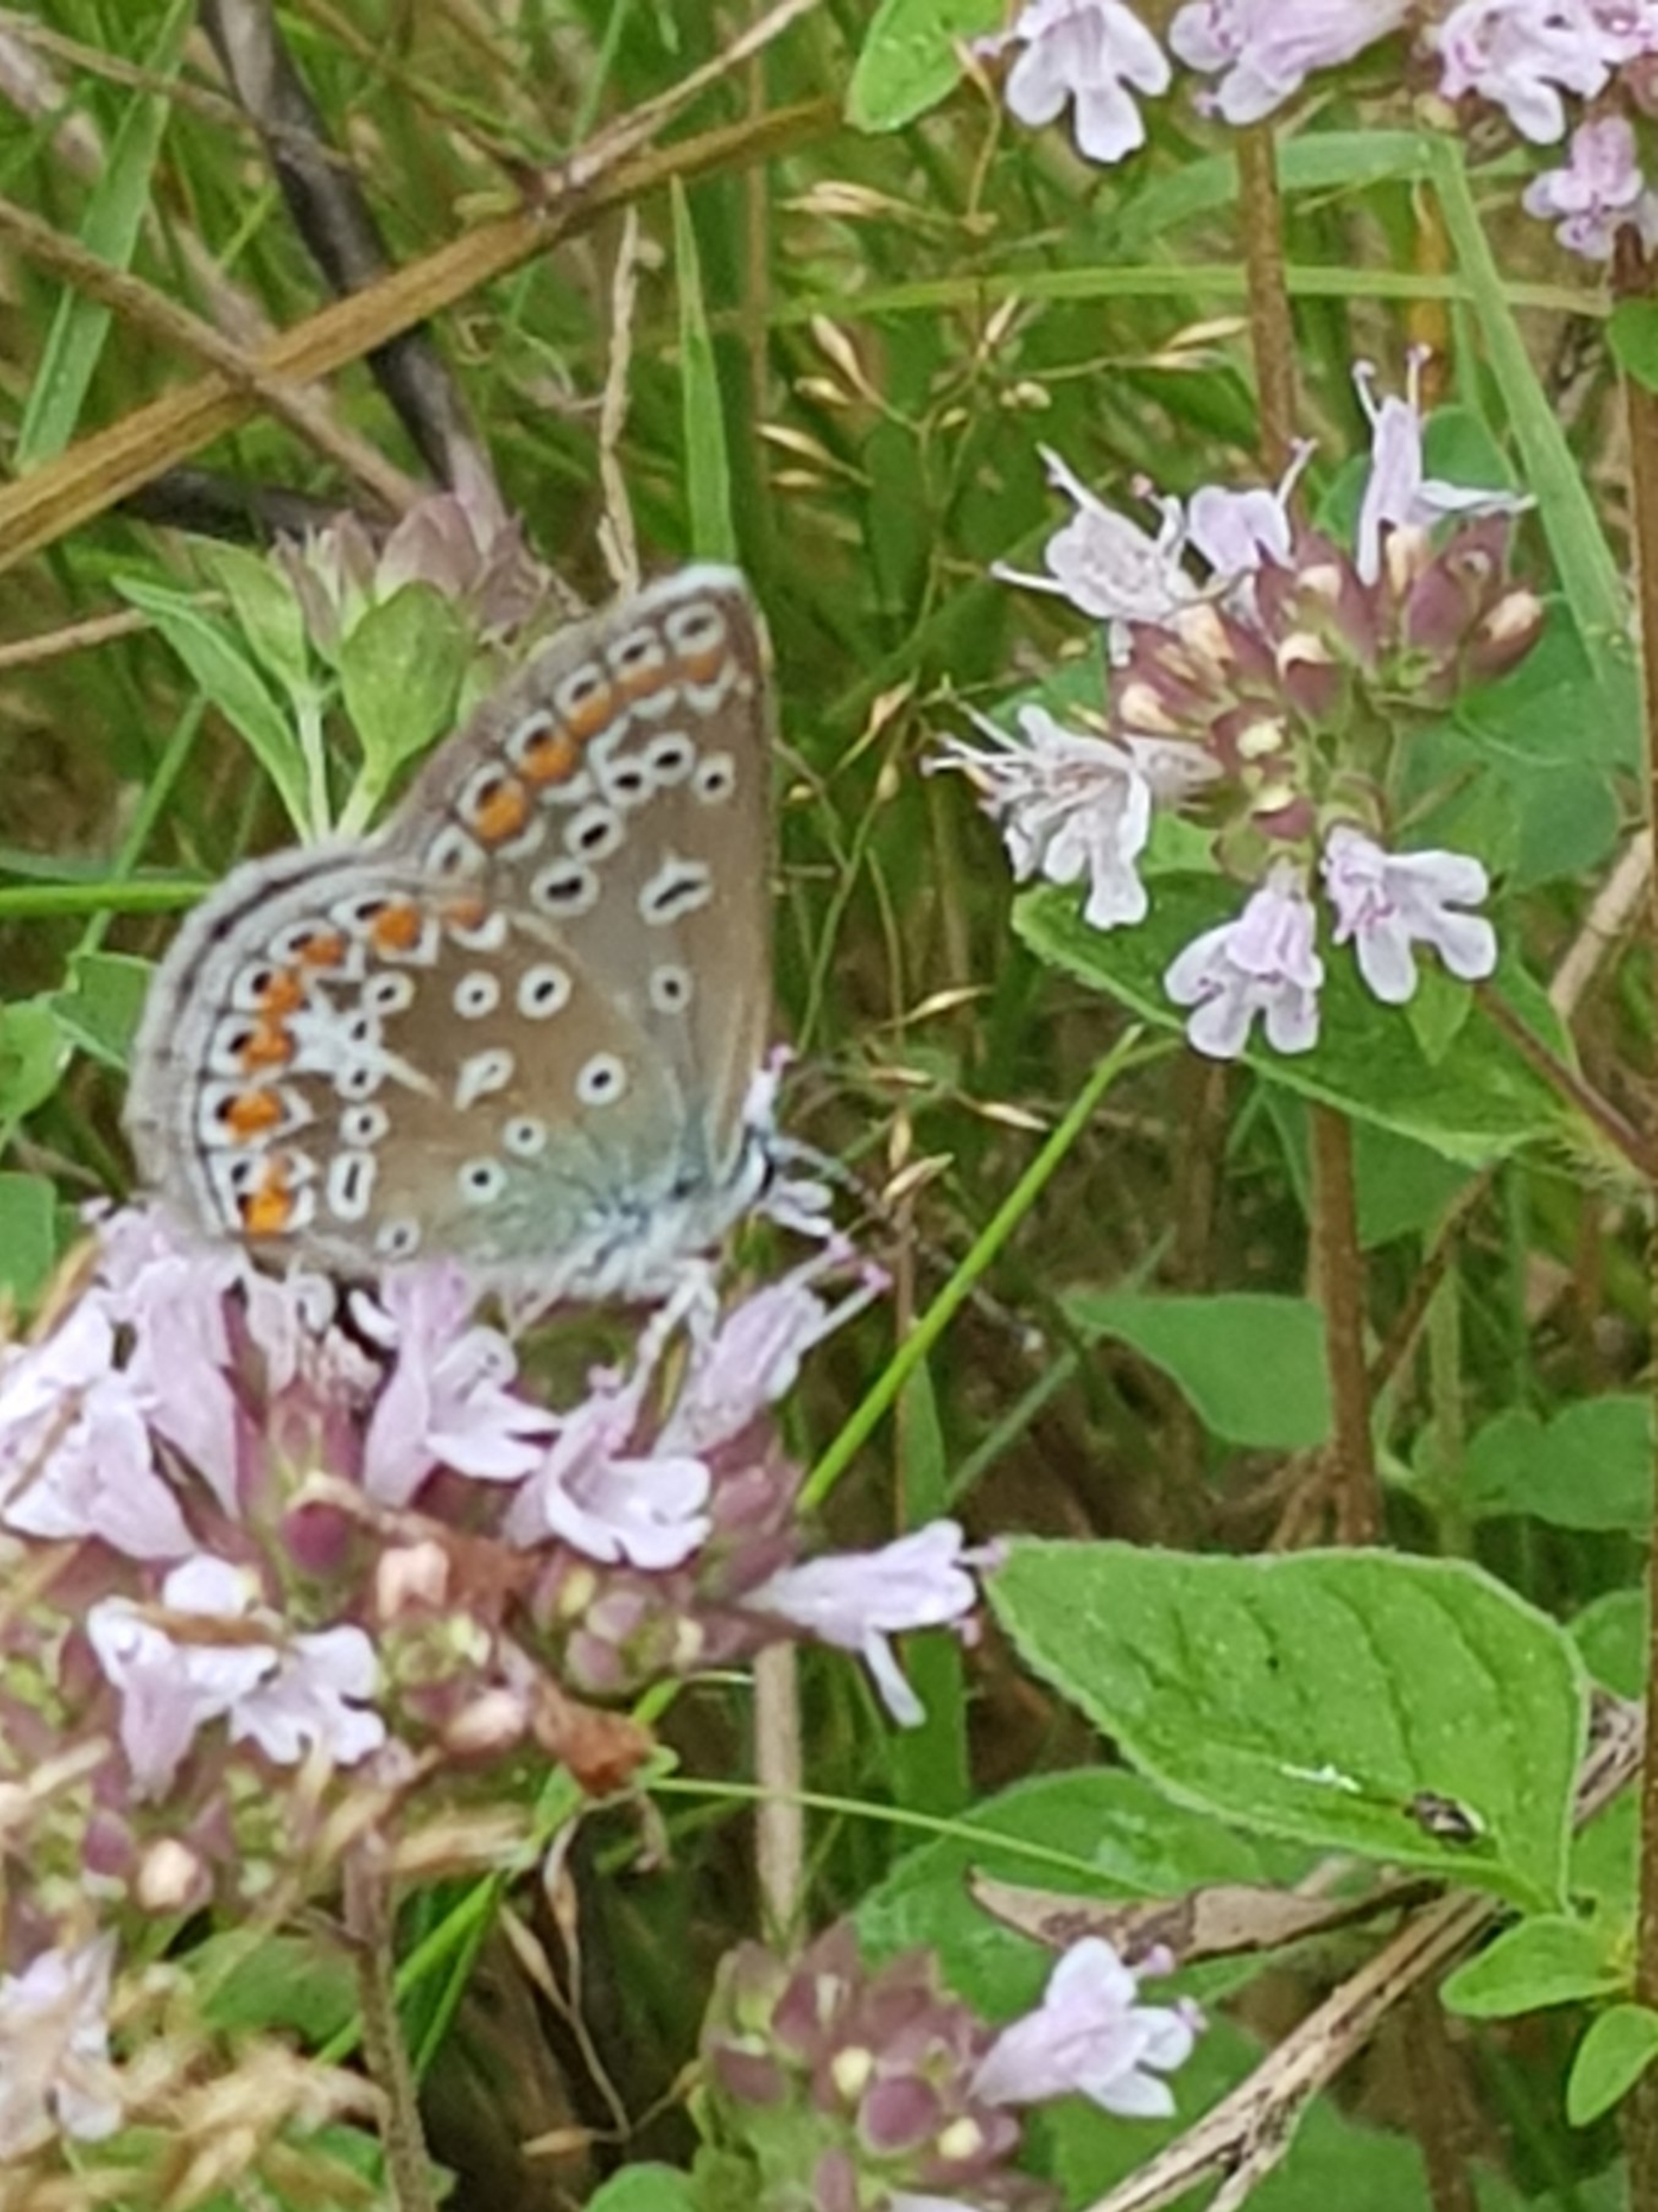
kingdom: Animalia
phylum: Arthropoda
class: Insecta
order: Lepidoptera
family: Lycaenidae
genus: Polyommatus
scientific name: Polyommatus icarus
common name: Almindelig blåfugl
